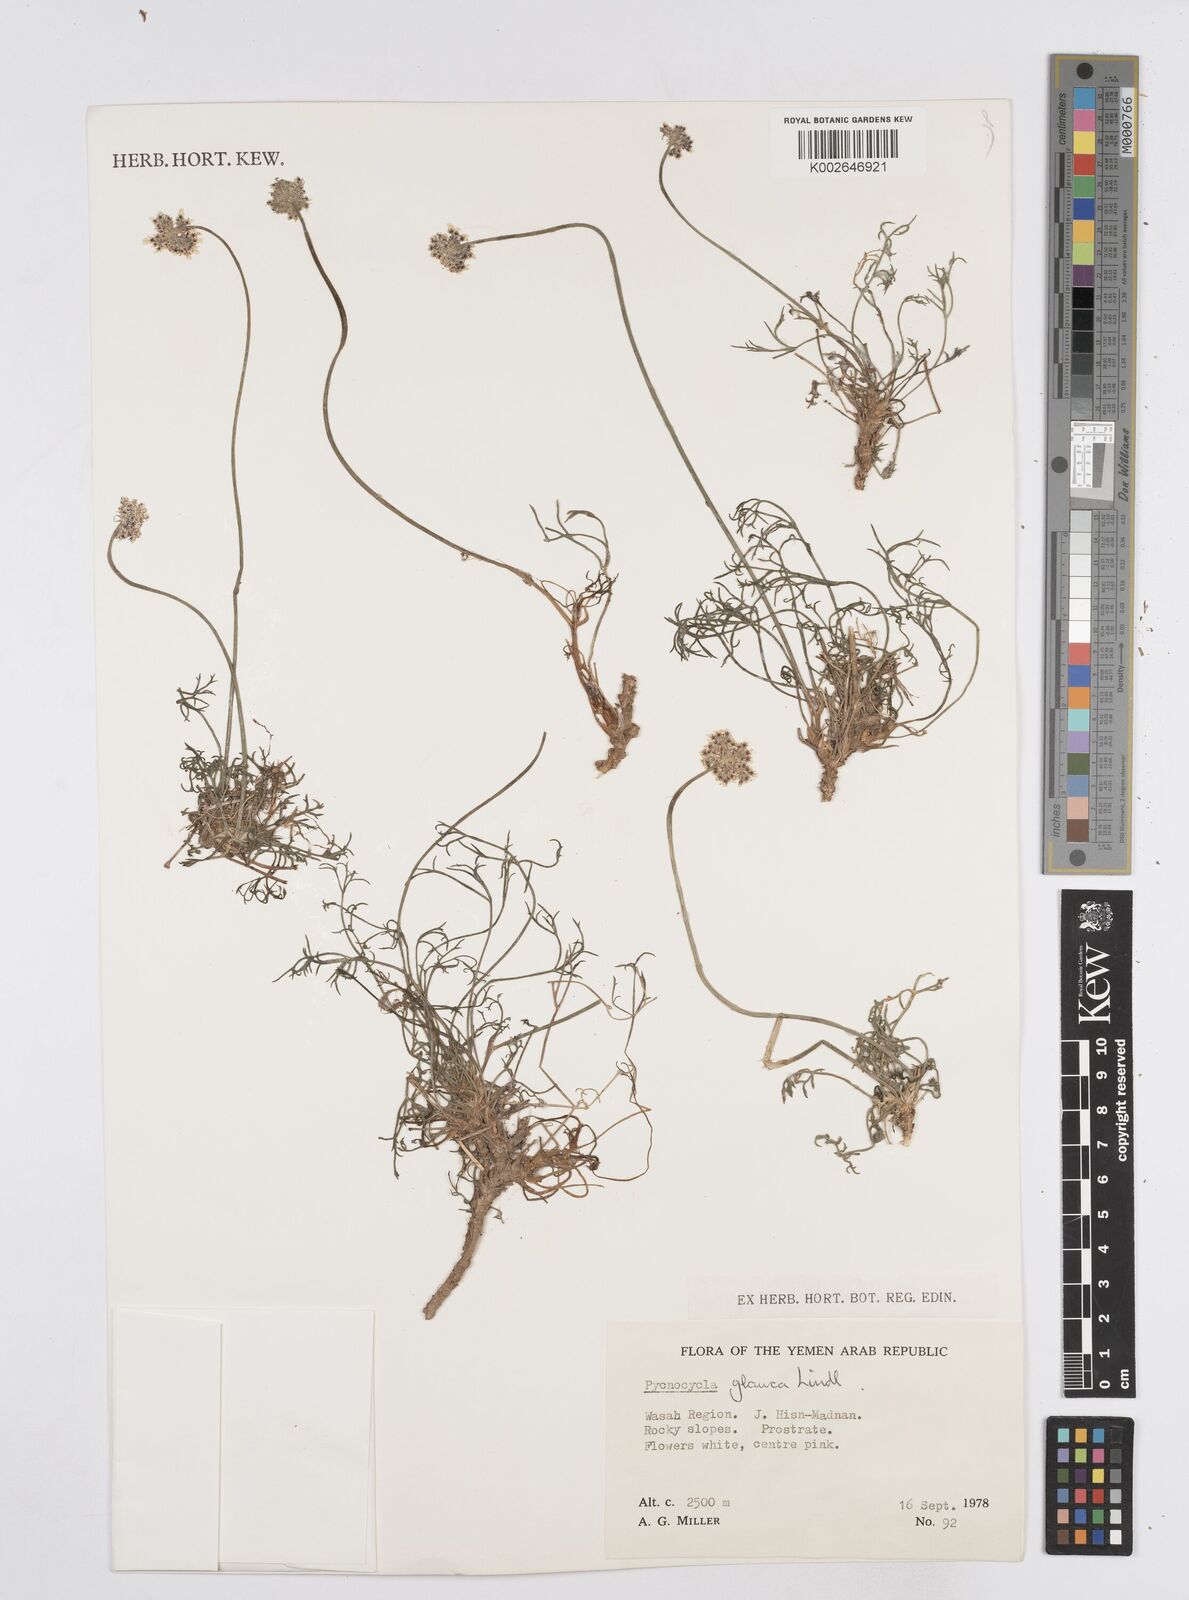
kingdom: Plantae
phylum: Tracheophyta
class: Magnoliopsida
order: Apiales
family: Apiaceae
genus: Pycnocycla
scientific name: Pycnocycla glauca
